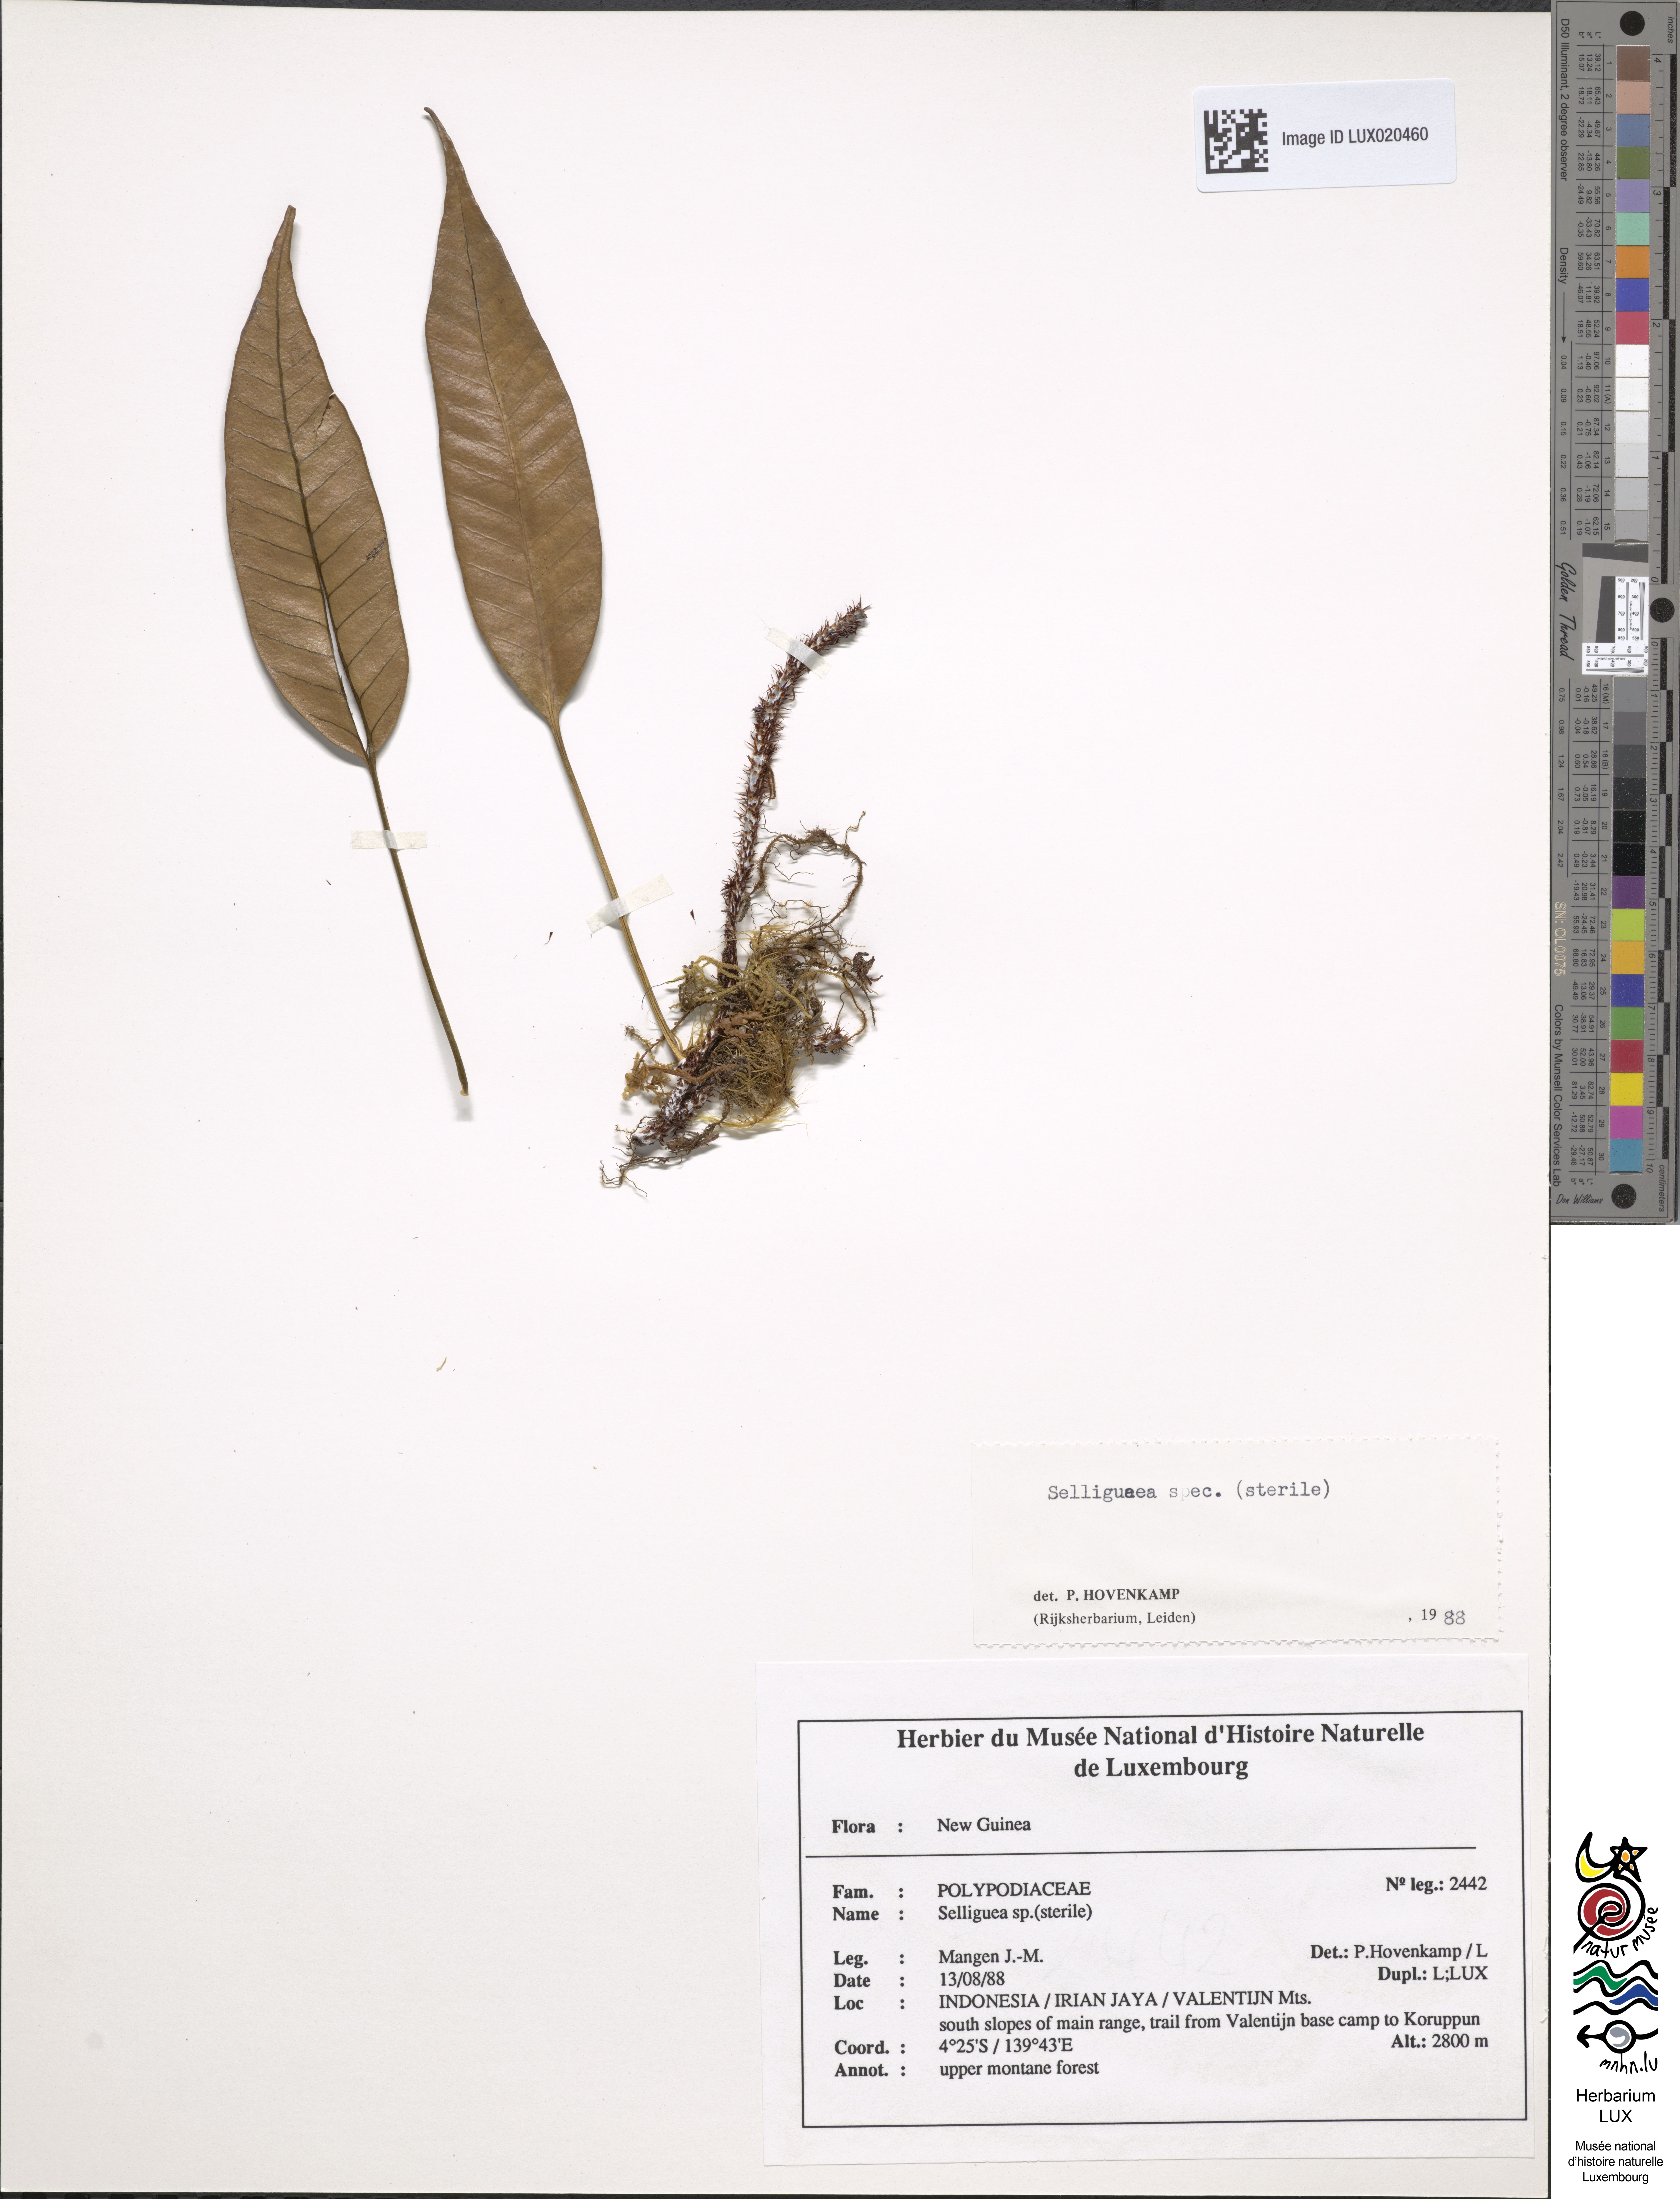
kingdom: Plantae
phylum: Tracheophyta
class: Polypodiopsida
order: Polypodiales
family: Polypodiaceae
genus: Selliguea
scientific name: Selliguea
